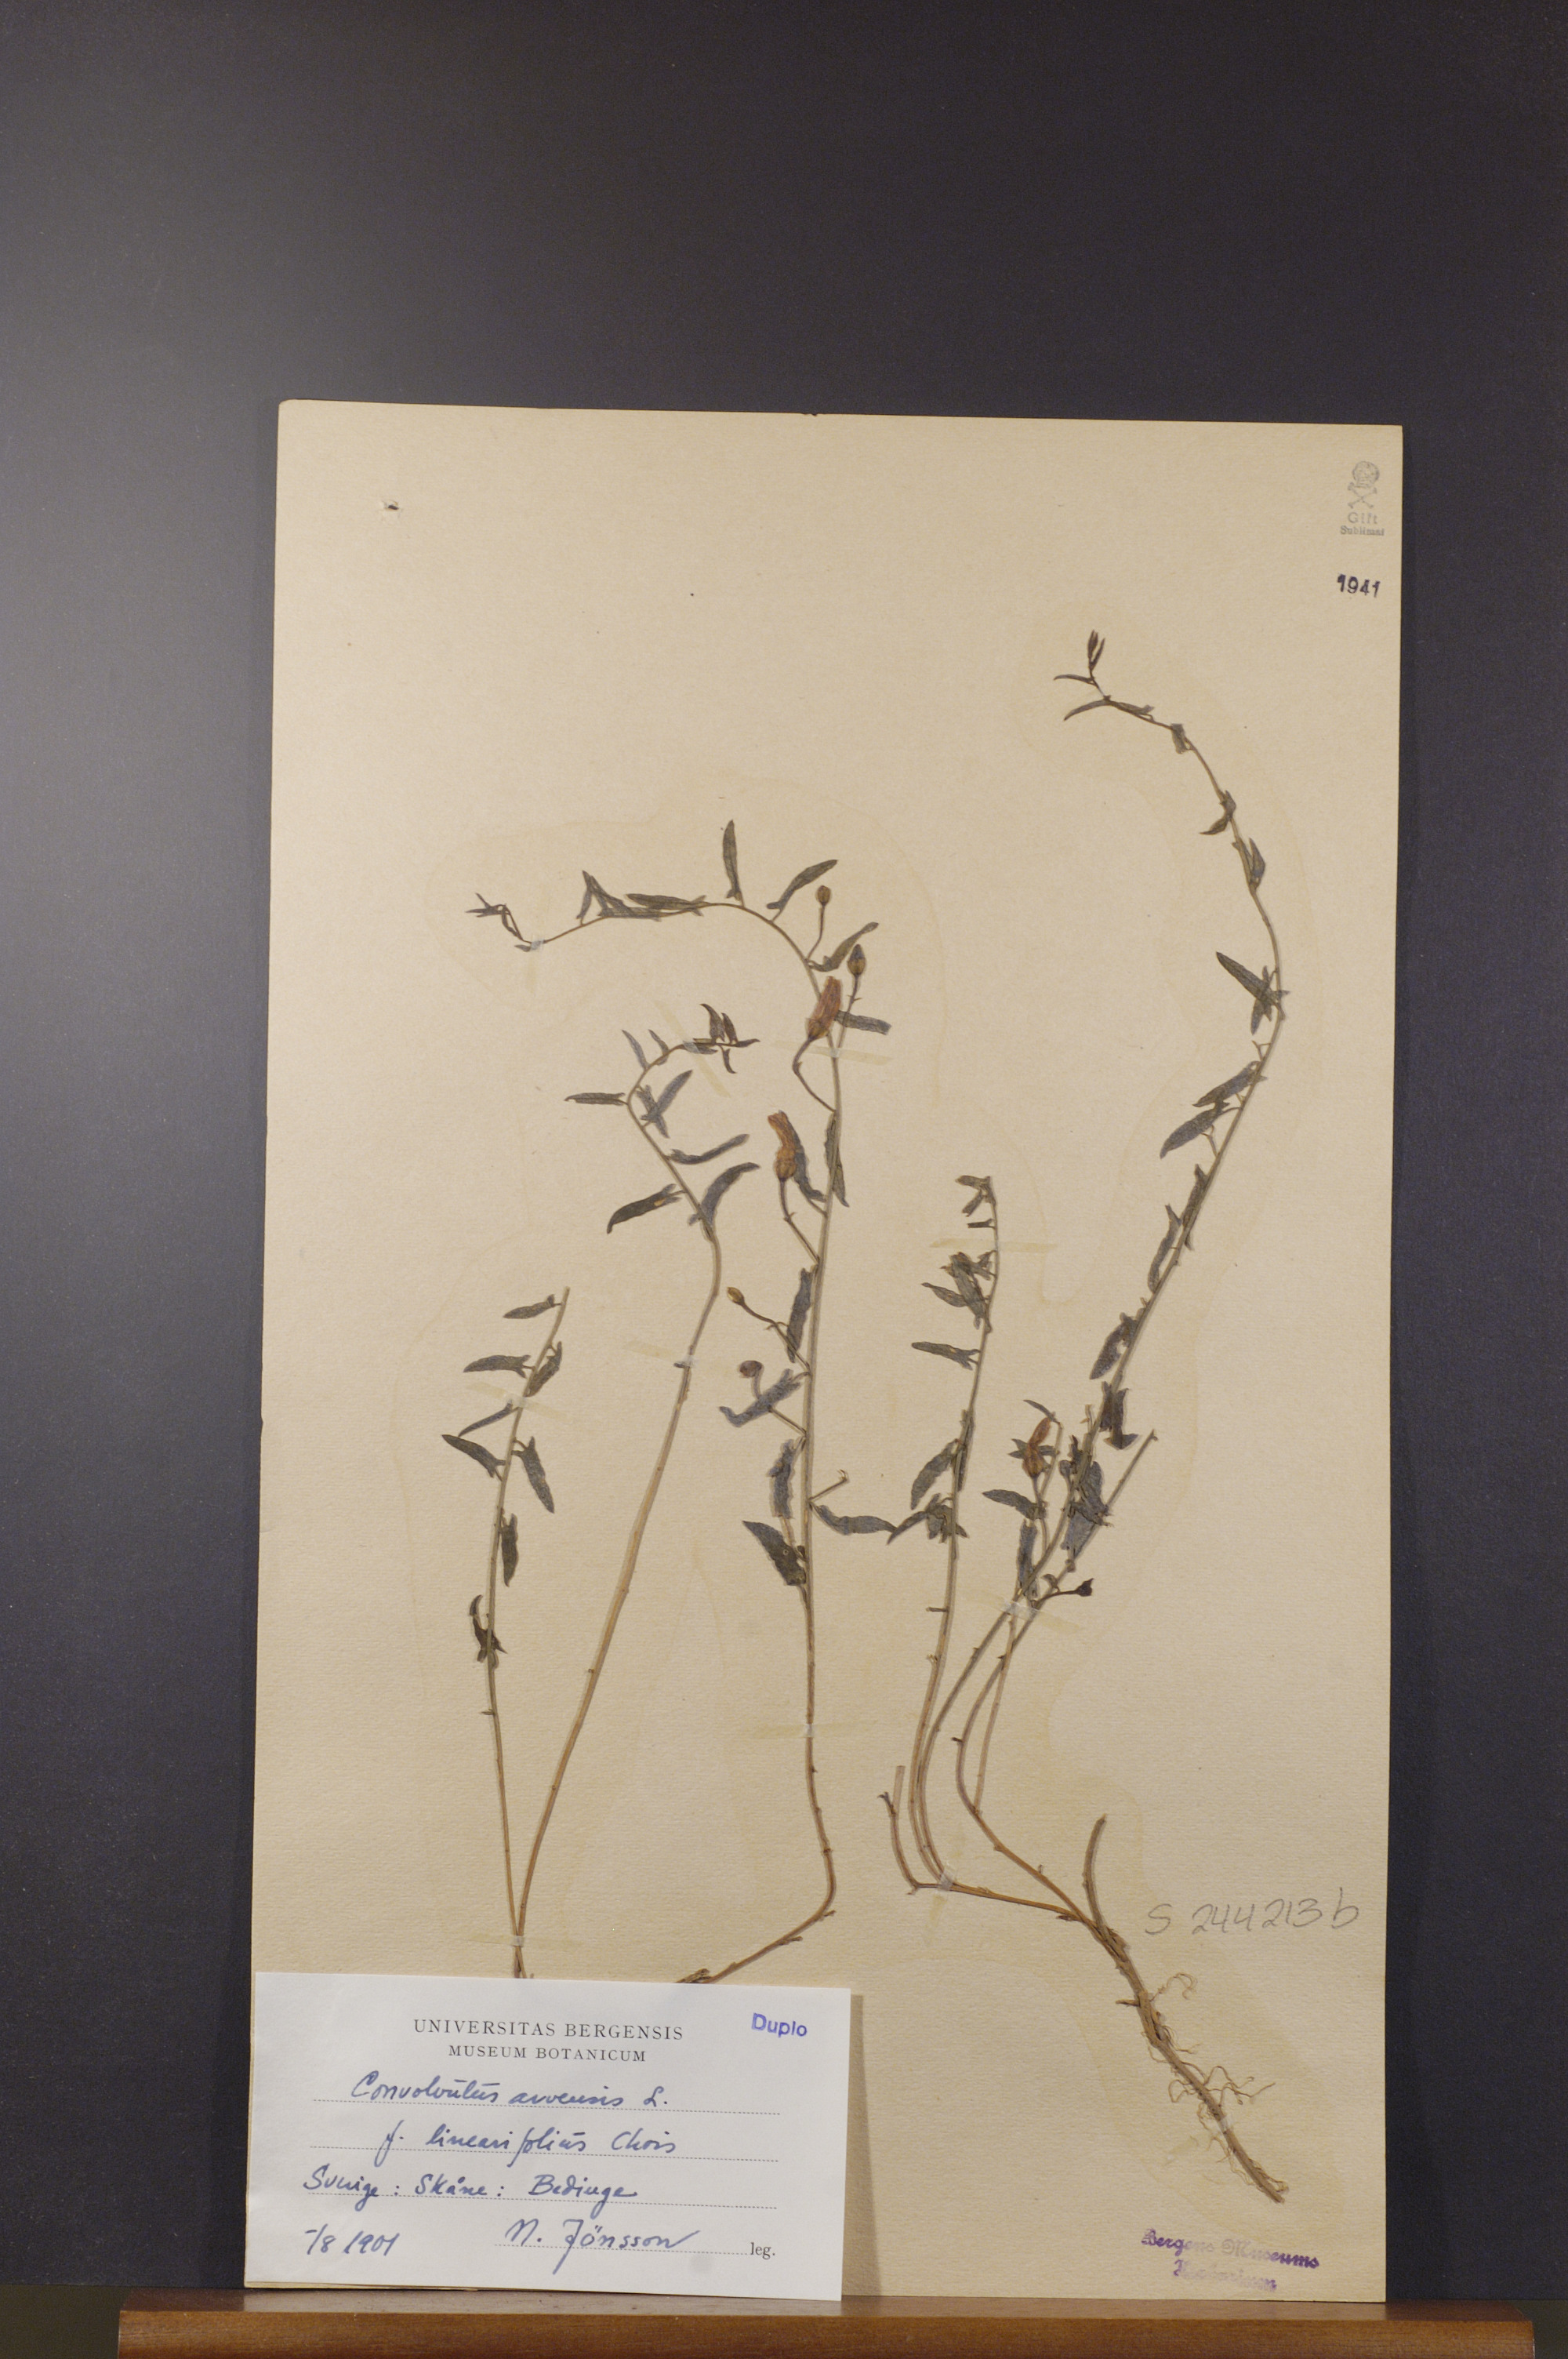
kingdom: Plantae
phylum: Tracheophyta
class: Magnoliopsida
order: Solanales
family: Convolvulaceae
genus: Convolvulus
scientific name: Convolvulus arvensis
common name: Field bindweed
